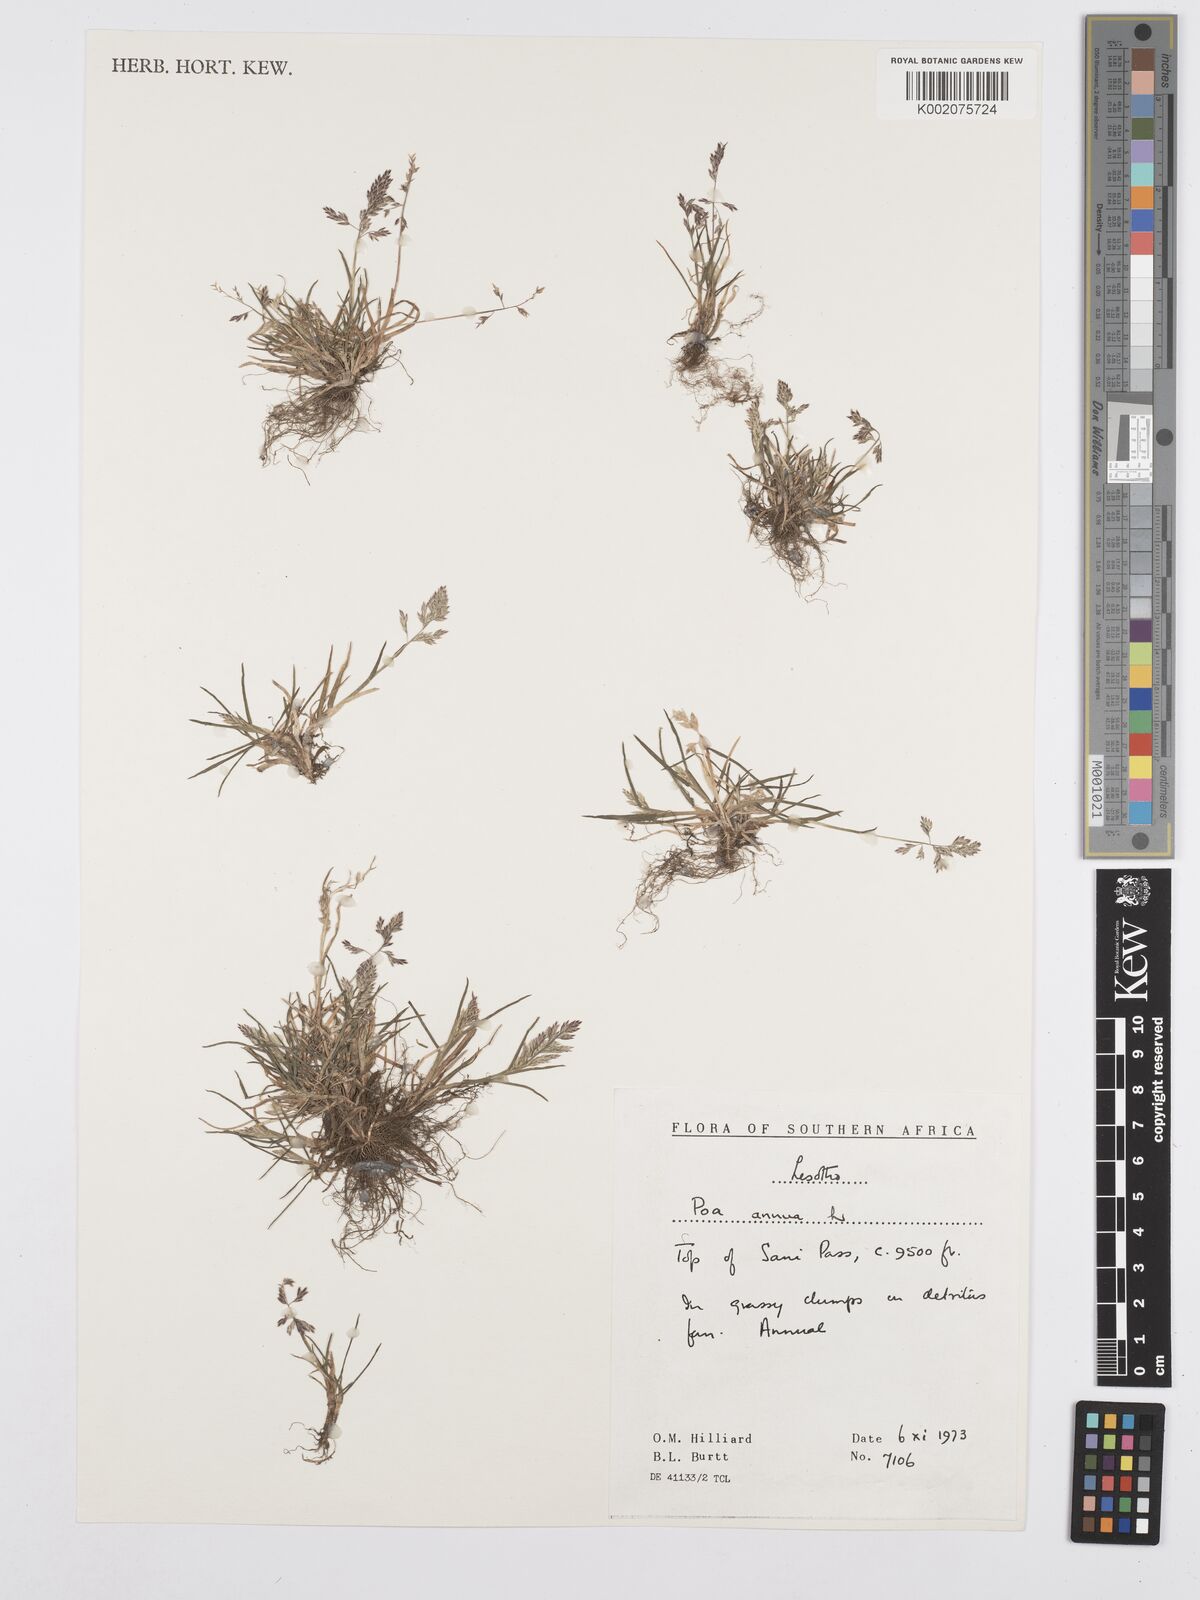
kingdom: Plantae
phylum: Tracheophyta
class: Liliopsida
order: Poales
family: Poaceae
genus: Poa
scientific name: Poa annua
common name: Annual bluegrass
